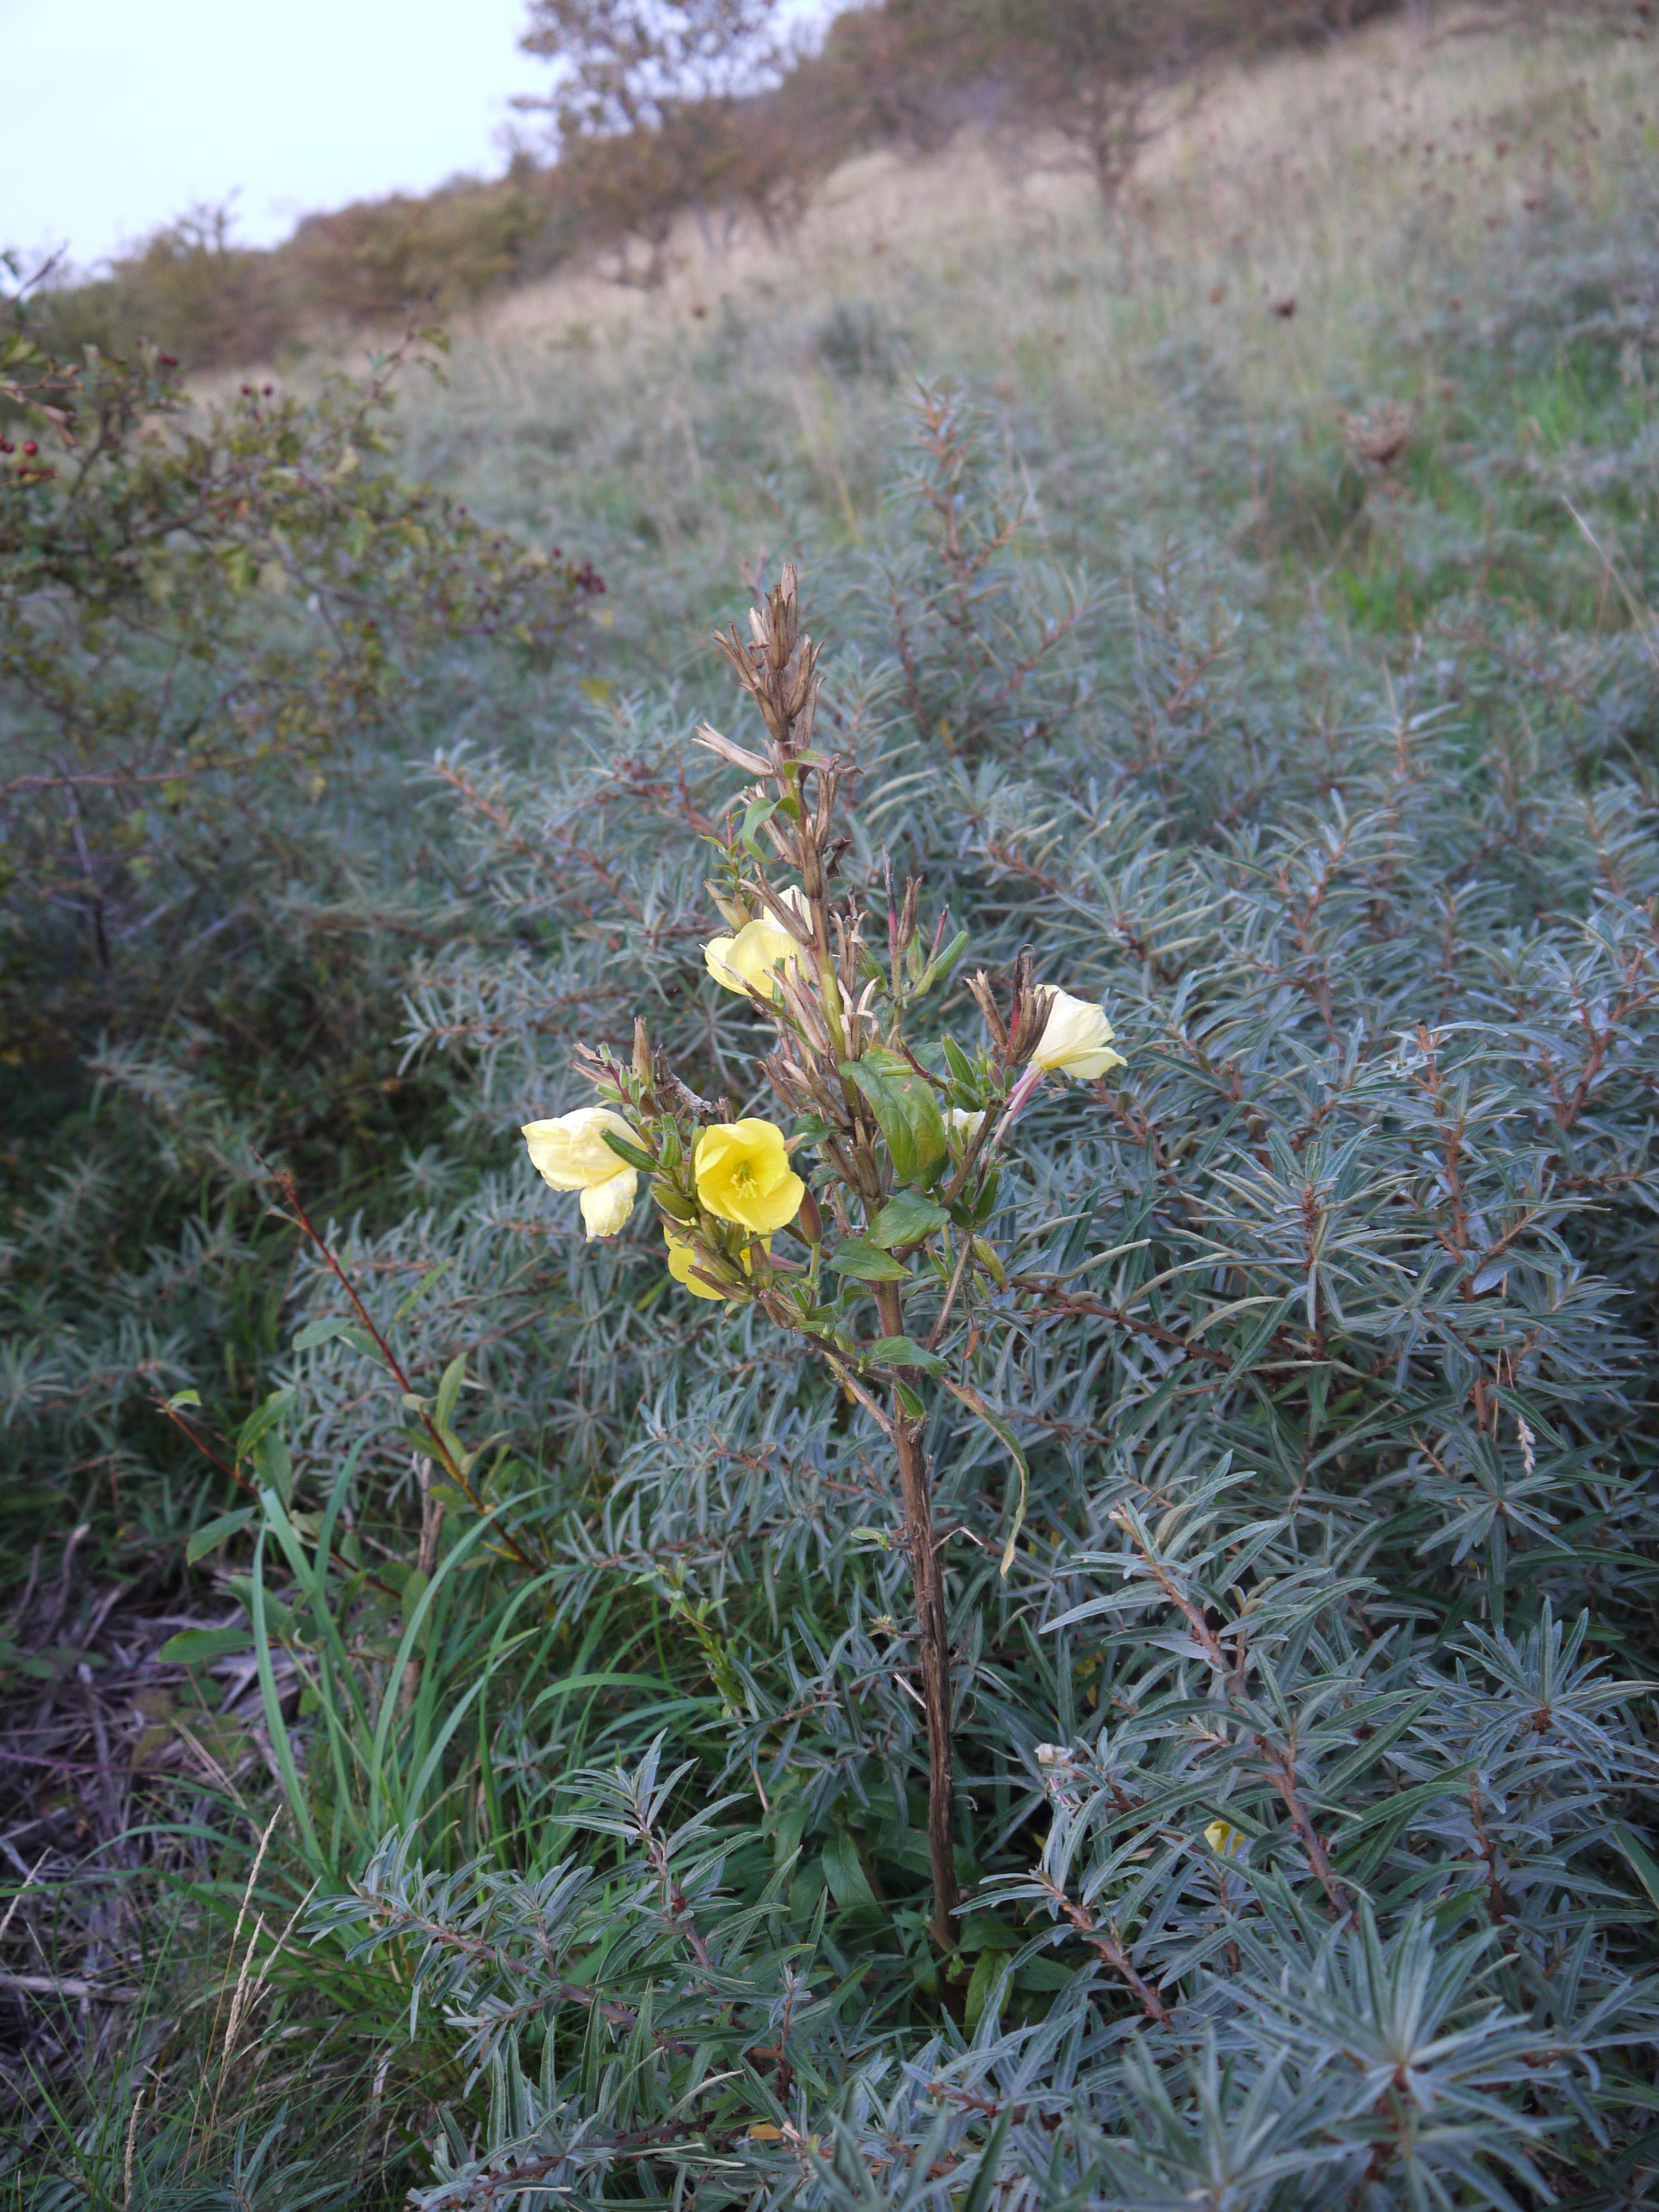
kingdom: Plantae
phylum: Tracheophyta
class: Magnoliopsida
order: Myrtales
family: Onagraceae
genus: Oenothera
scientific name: Oenothera glazioviana
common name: Large-flowered evening-primrose
